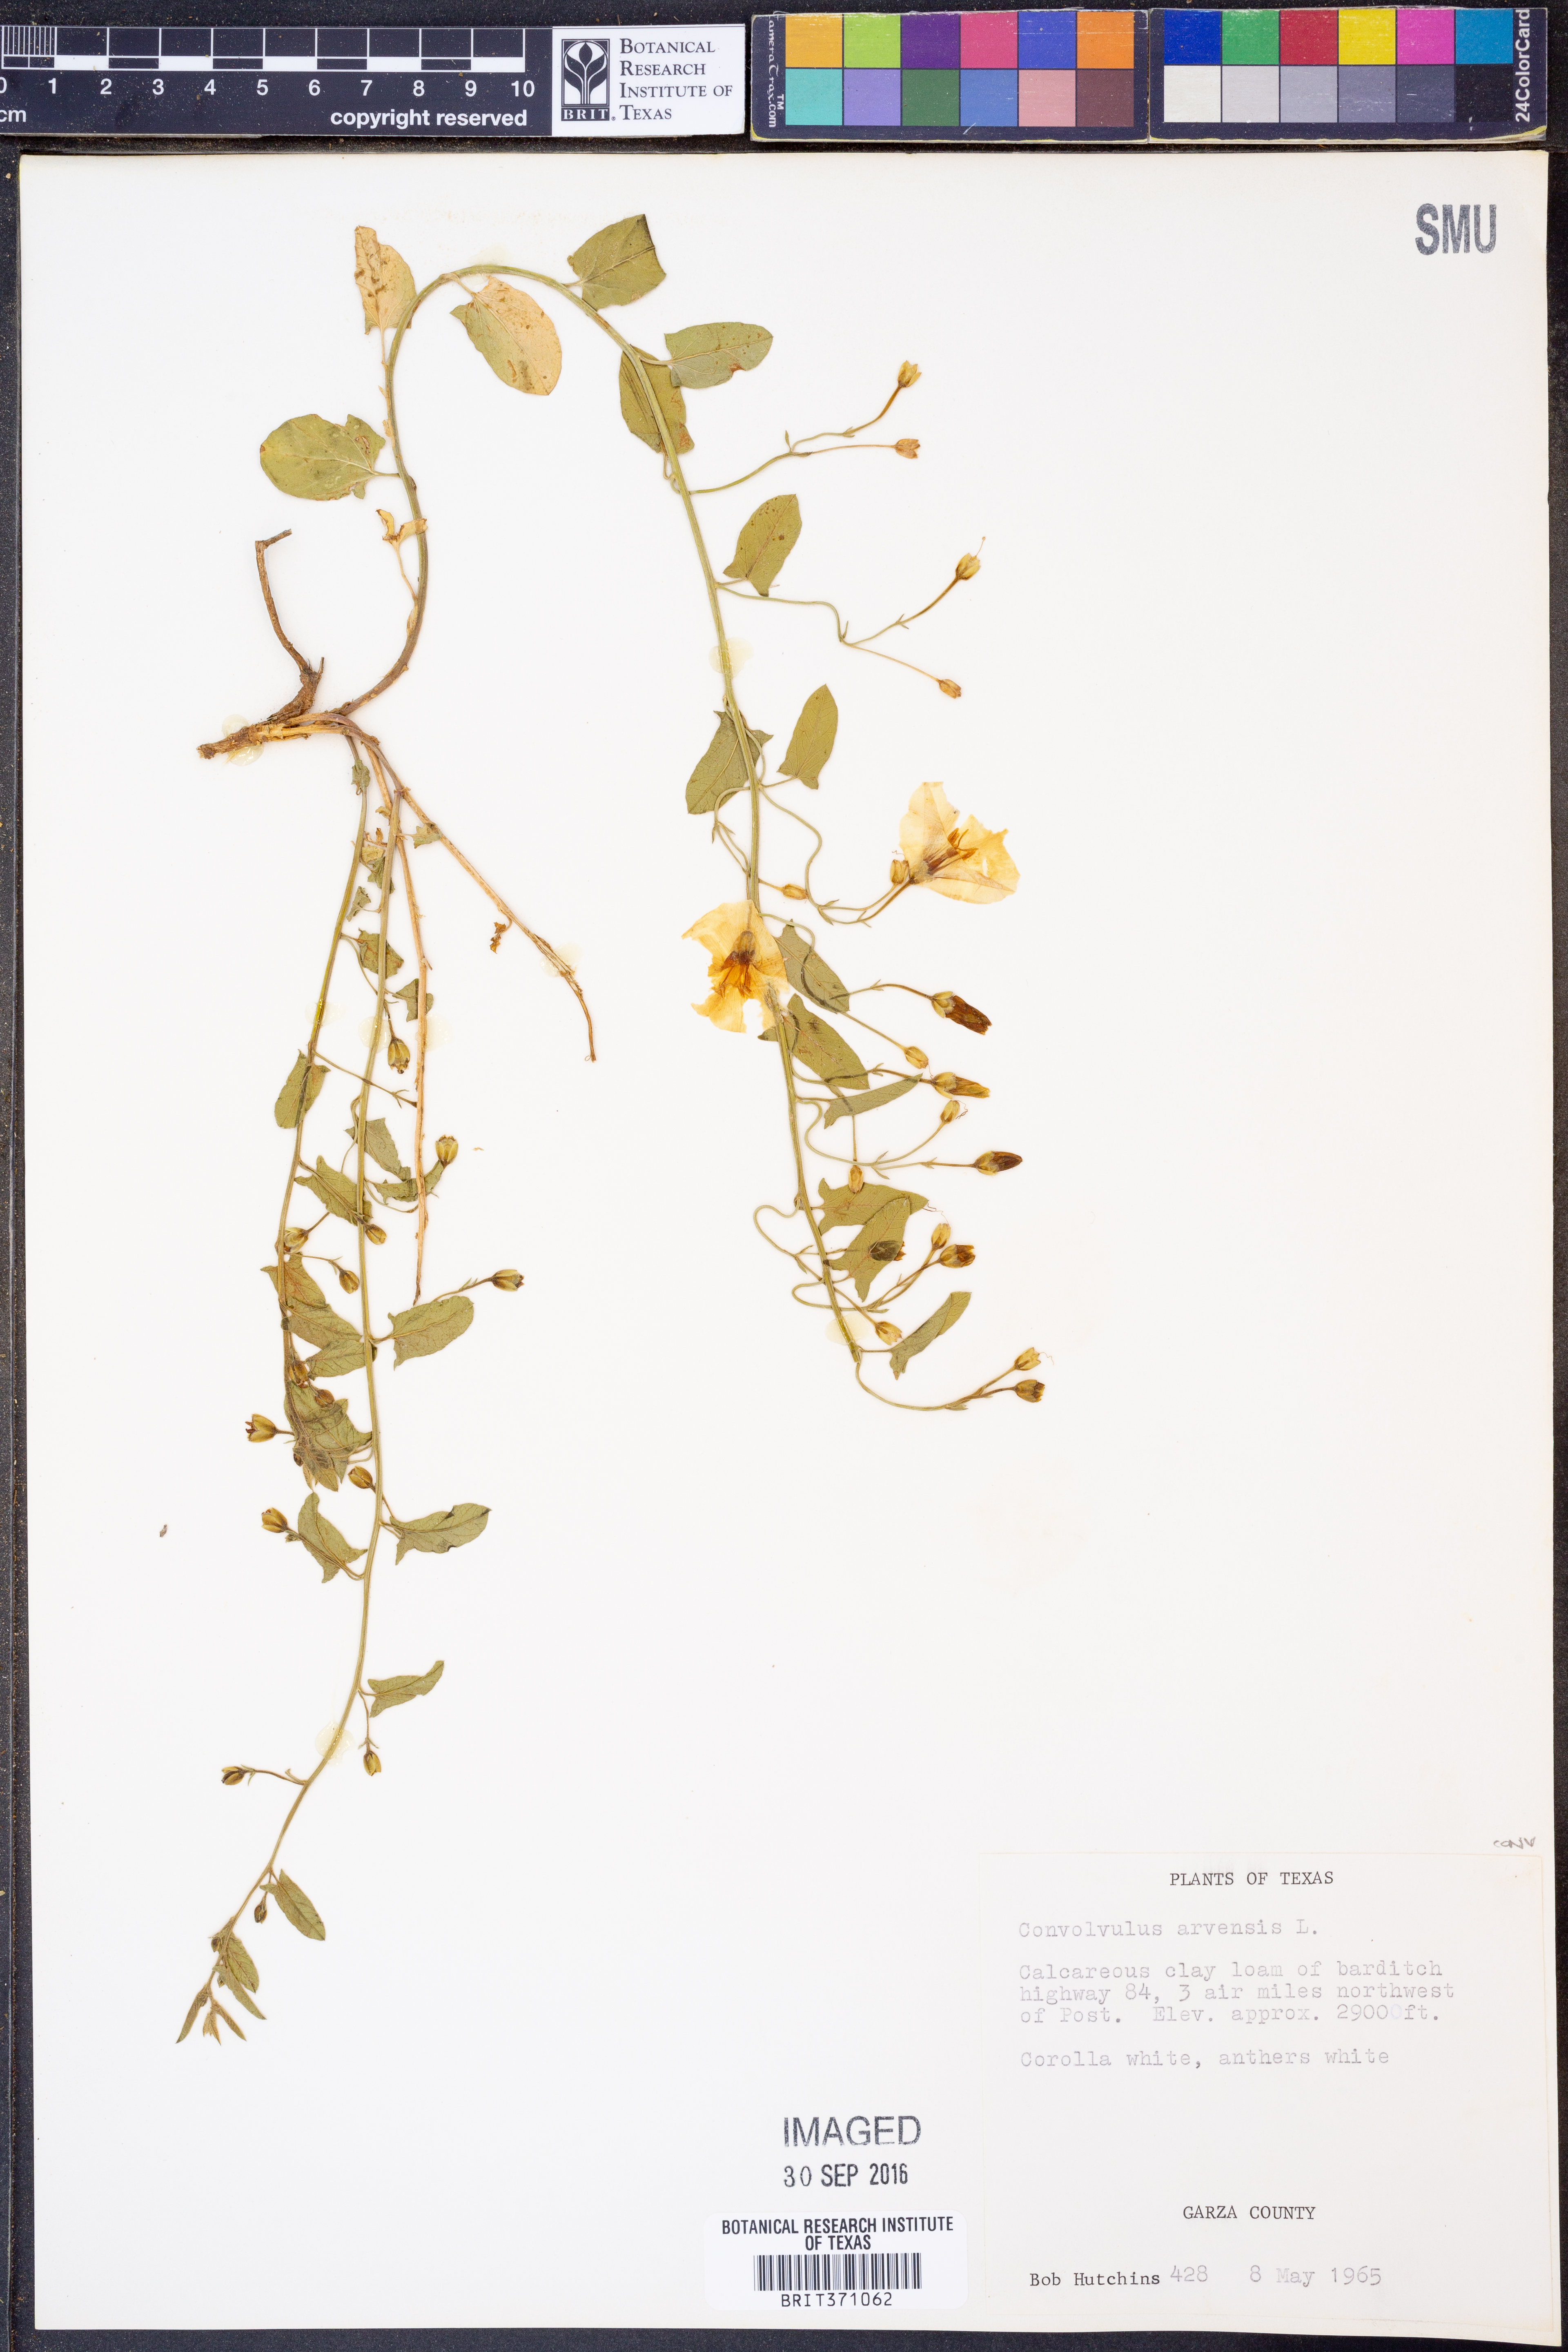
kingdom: Plantae
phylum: Tracheophyta
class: Magnoliopsida
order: Solanales
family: Convolvulaceae
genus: Convolvulus
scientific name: Convolvulus arvensis
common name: Field bindweed
